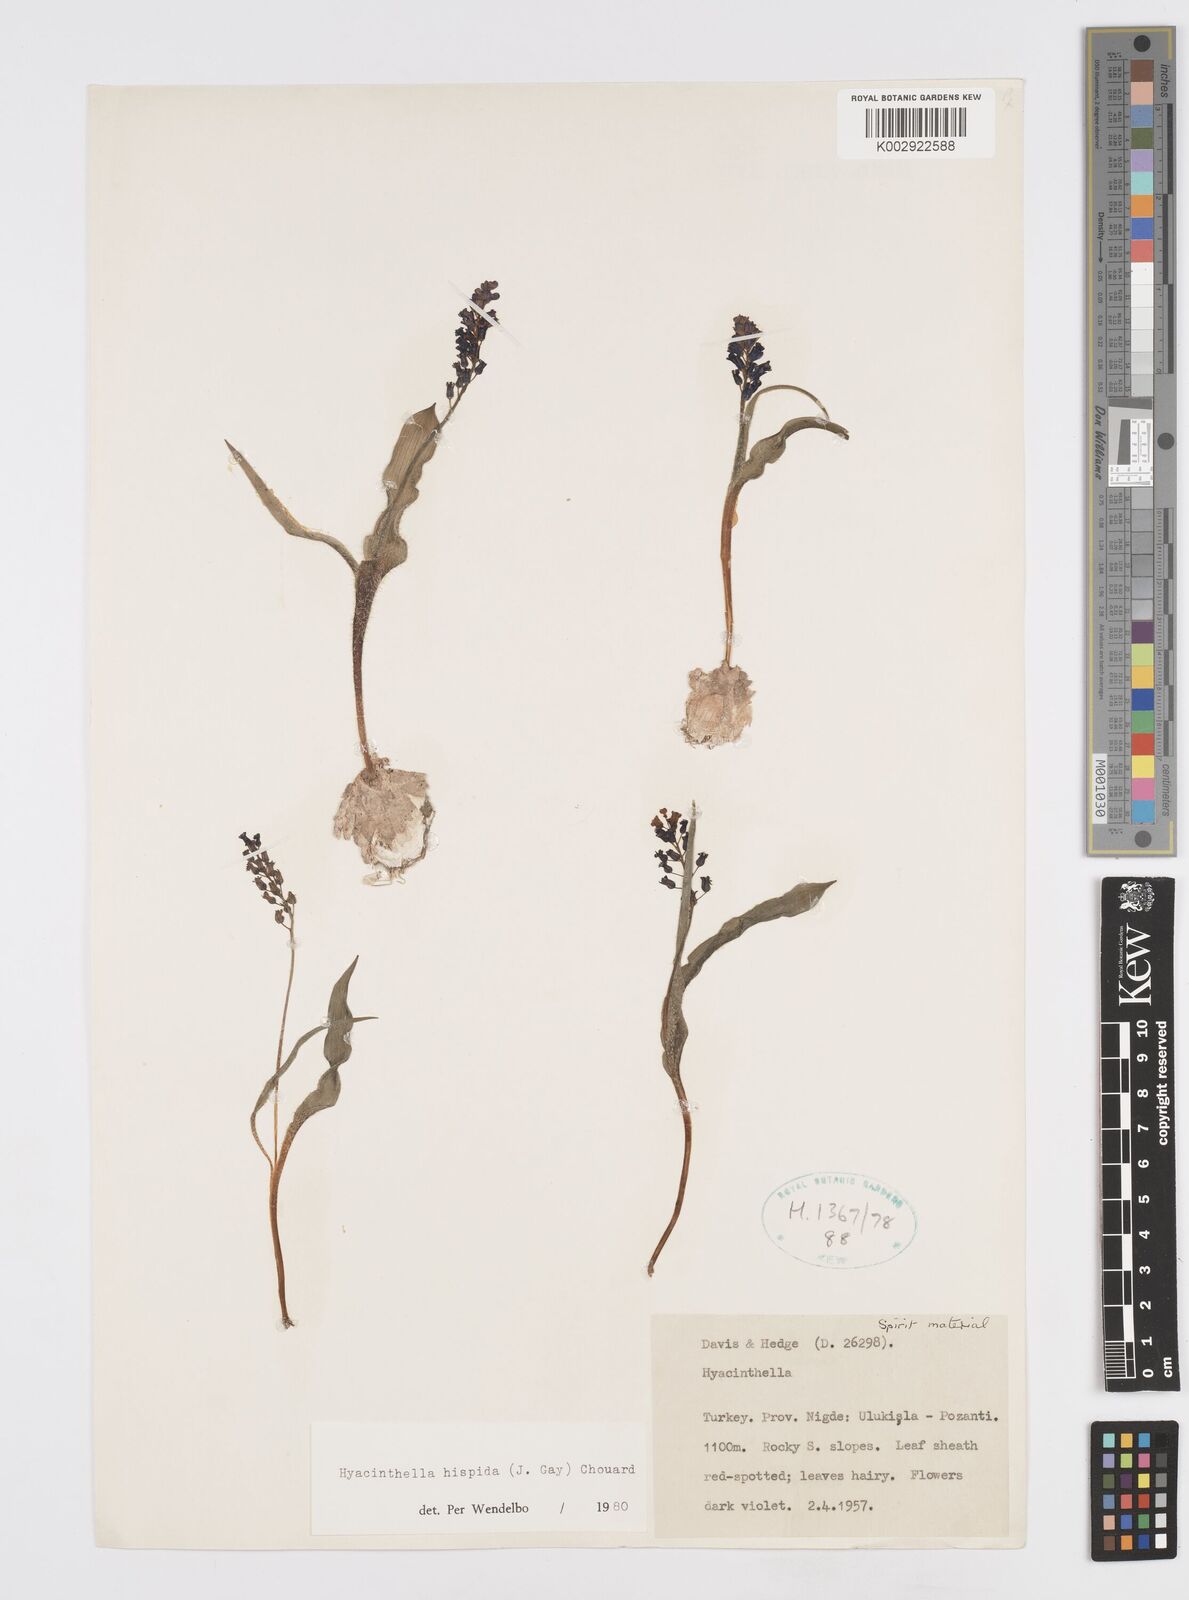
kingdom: Plantae
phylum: Tracheophyta
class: Liliopsida
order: Asparagales
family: Asparagaceae
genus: Hyacinthella
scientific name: Hyacinthella hispida
